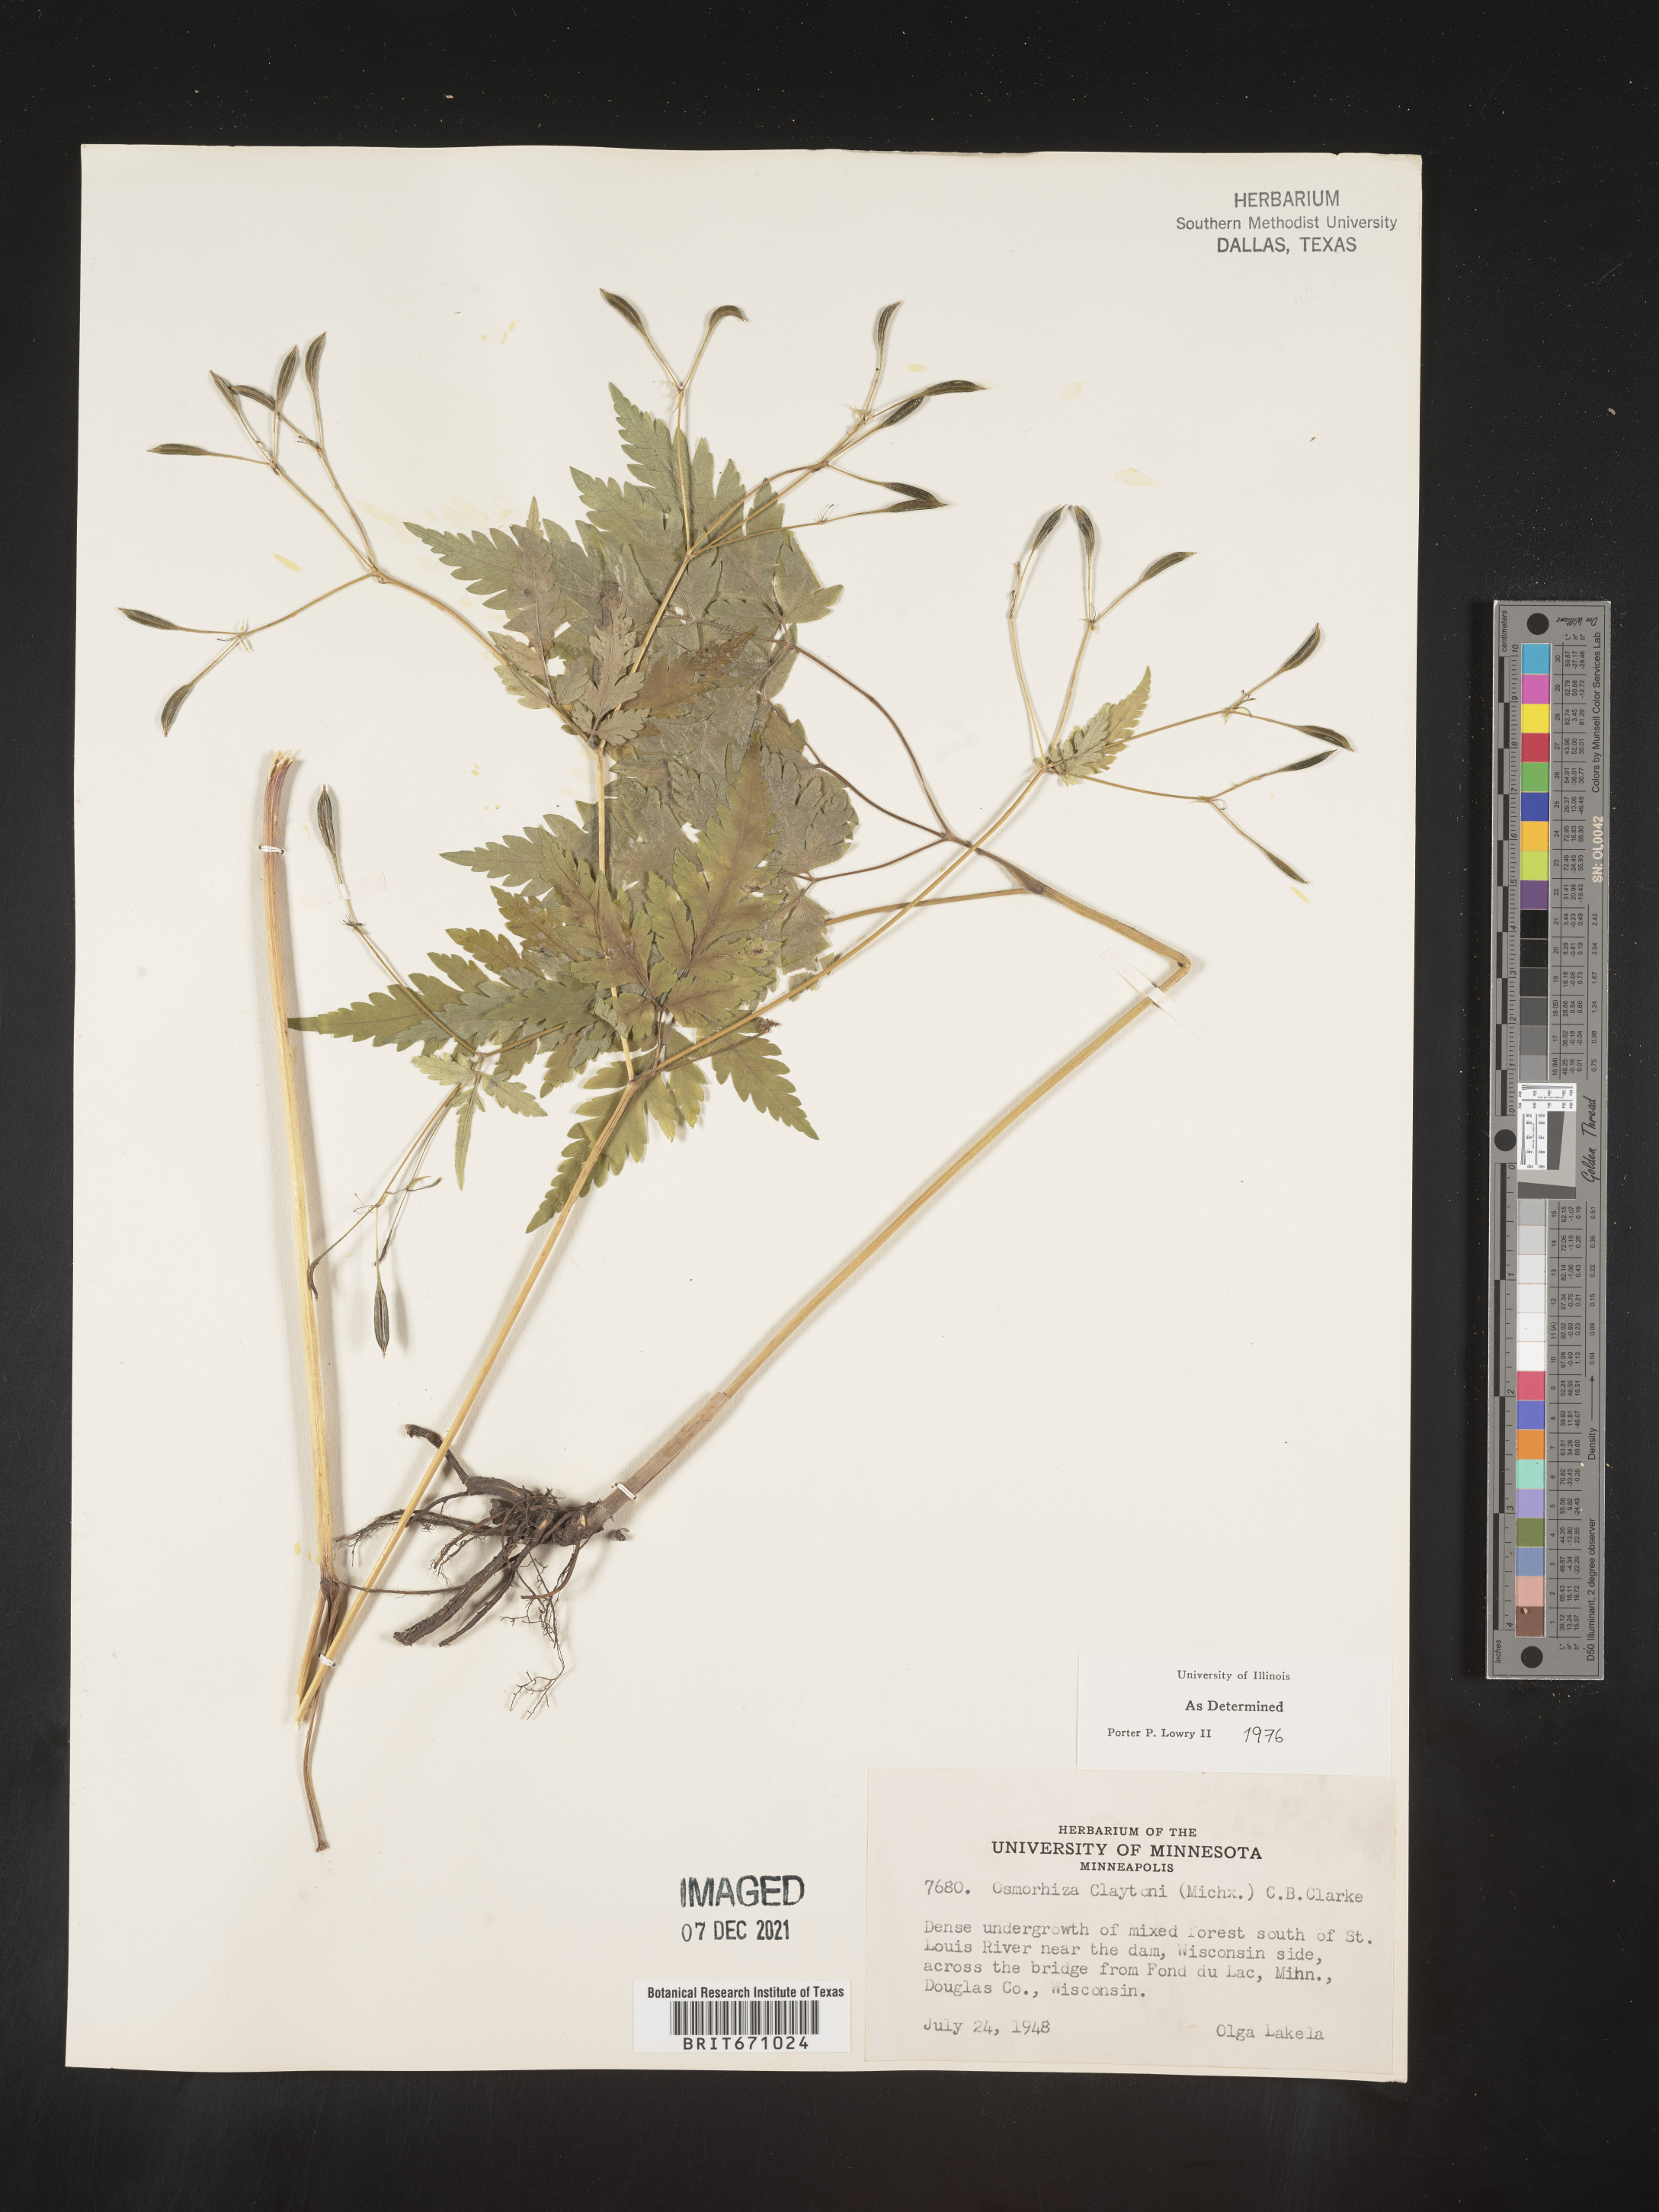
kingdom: Plantae
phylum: Tracheophyta
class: Magnoliopsida
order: Apiales
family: Apiaceae
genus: Osmorhiza
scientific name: Osmorhiza claytonii
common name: Hairy sweet cicely
